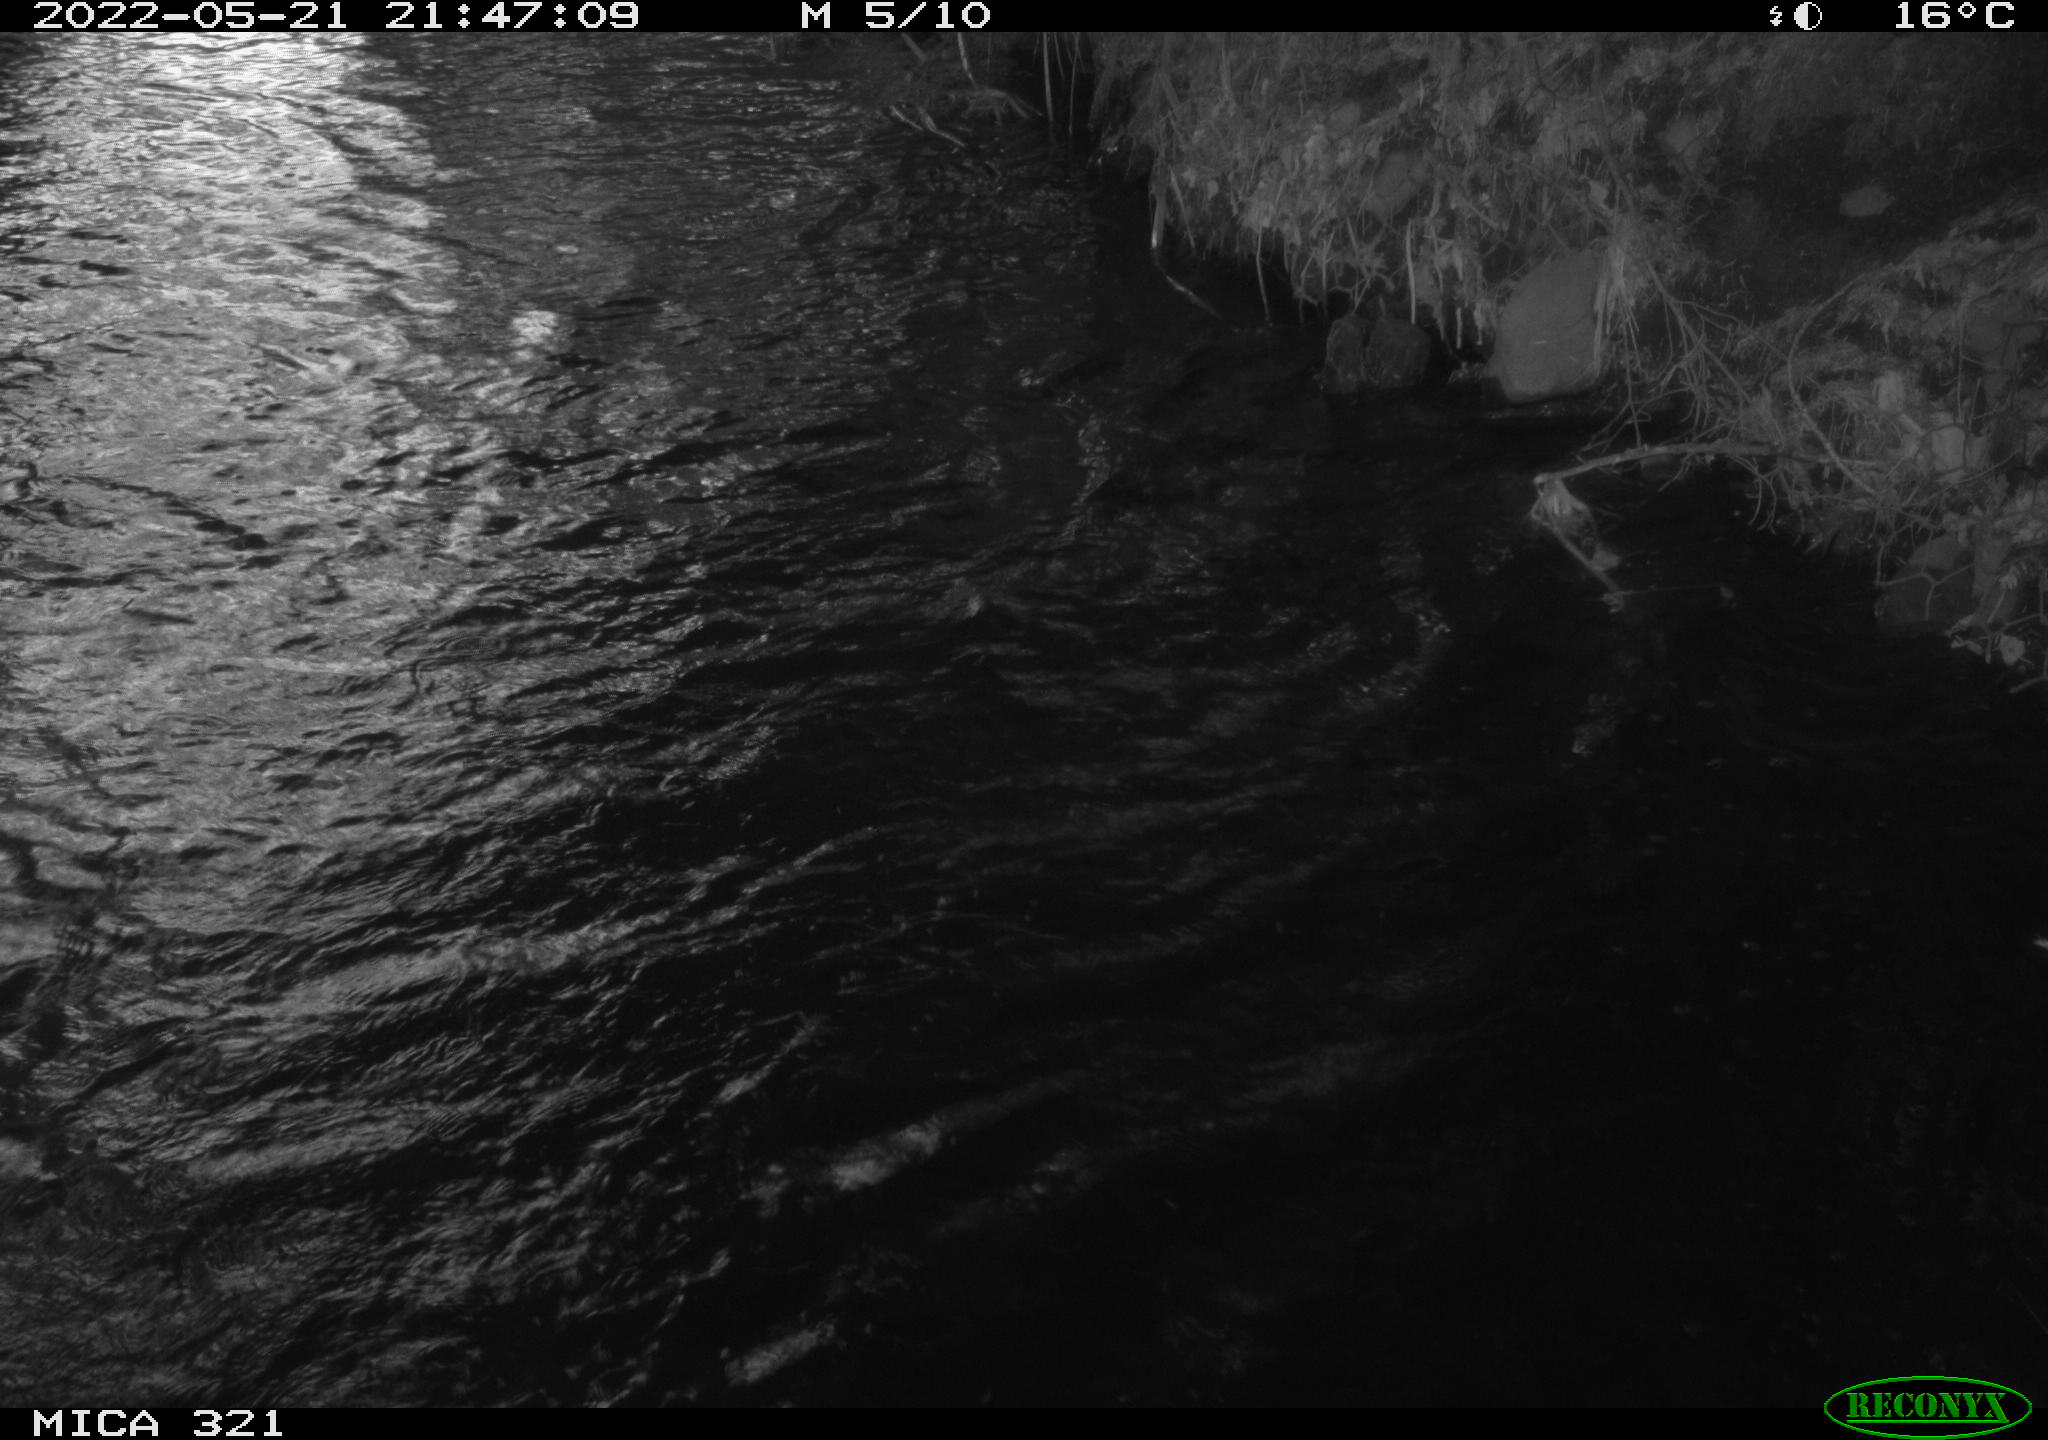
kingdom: Animalia
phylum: Chordata
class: Aves
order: Anseriformes
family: Anatidae
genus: Anas
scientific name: Anas platyrhynchos
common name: Mallard
